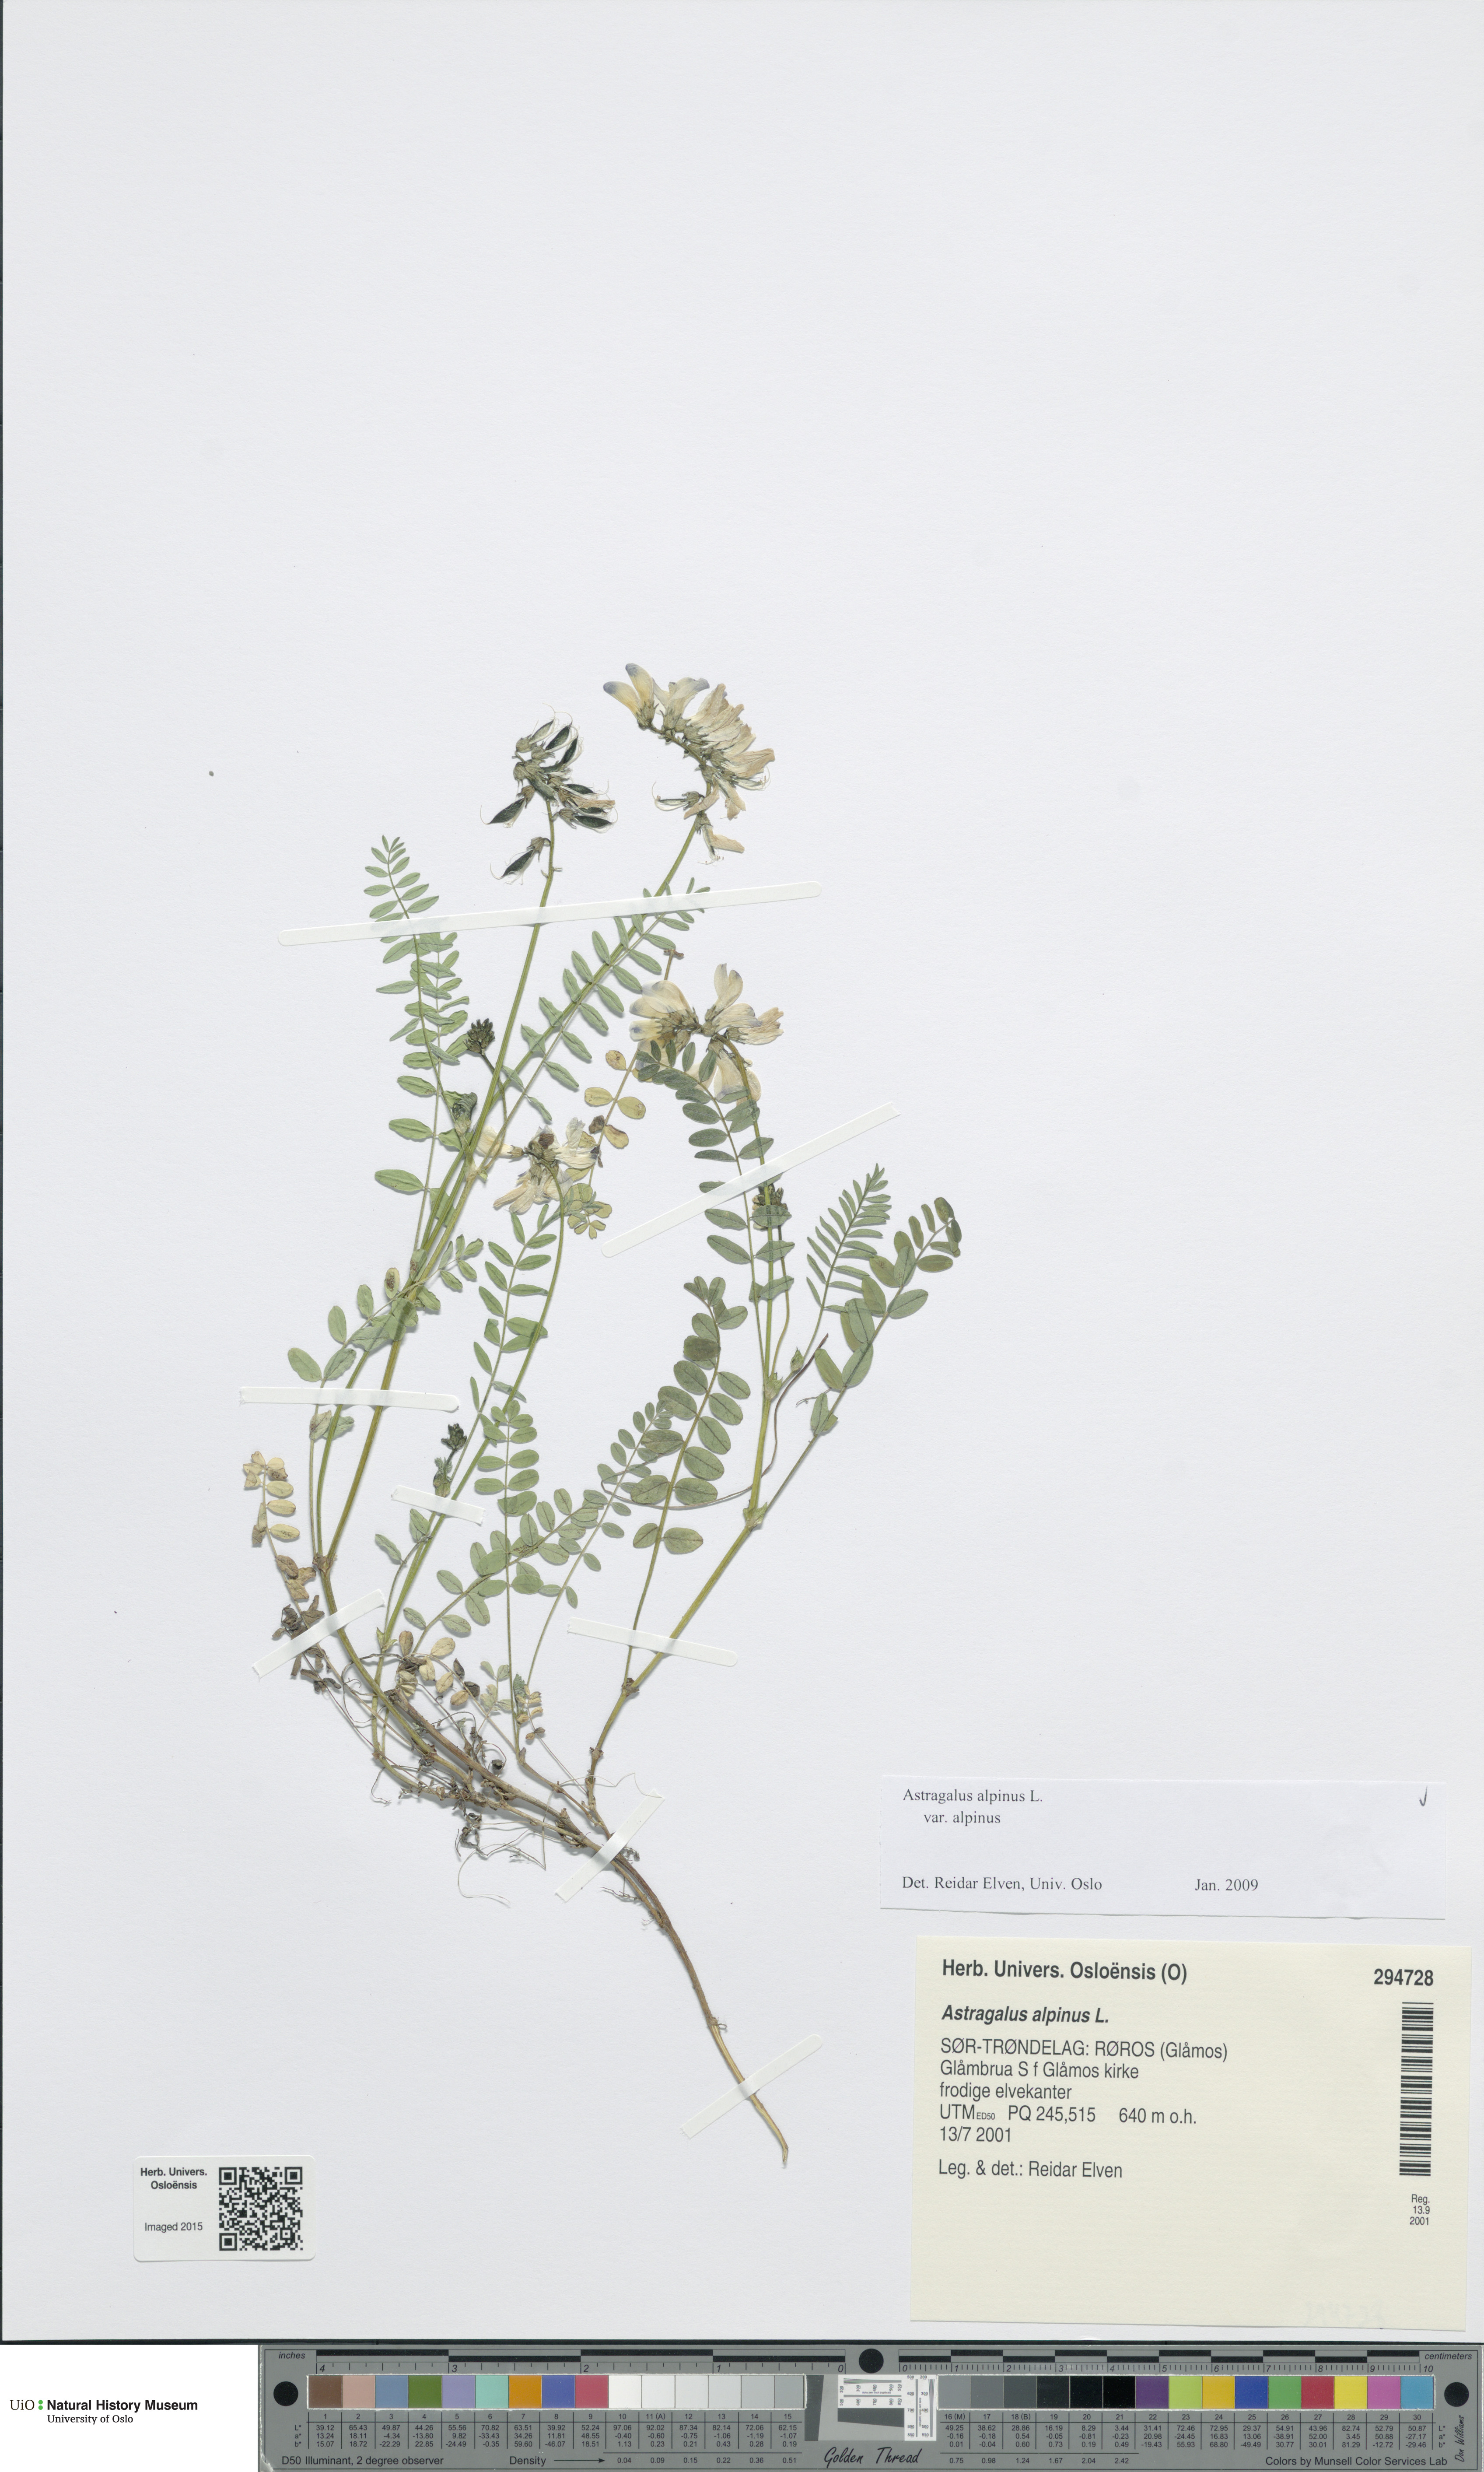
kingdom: Plantae
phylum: Tracheophyta
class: Magnoliopsida
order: Fabales
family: Fabaceae
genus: Astragalus
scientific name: Astragalus alpinus
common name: Alpine milk-vetch
